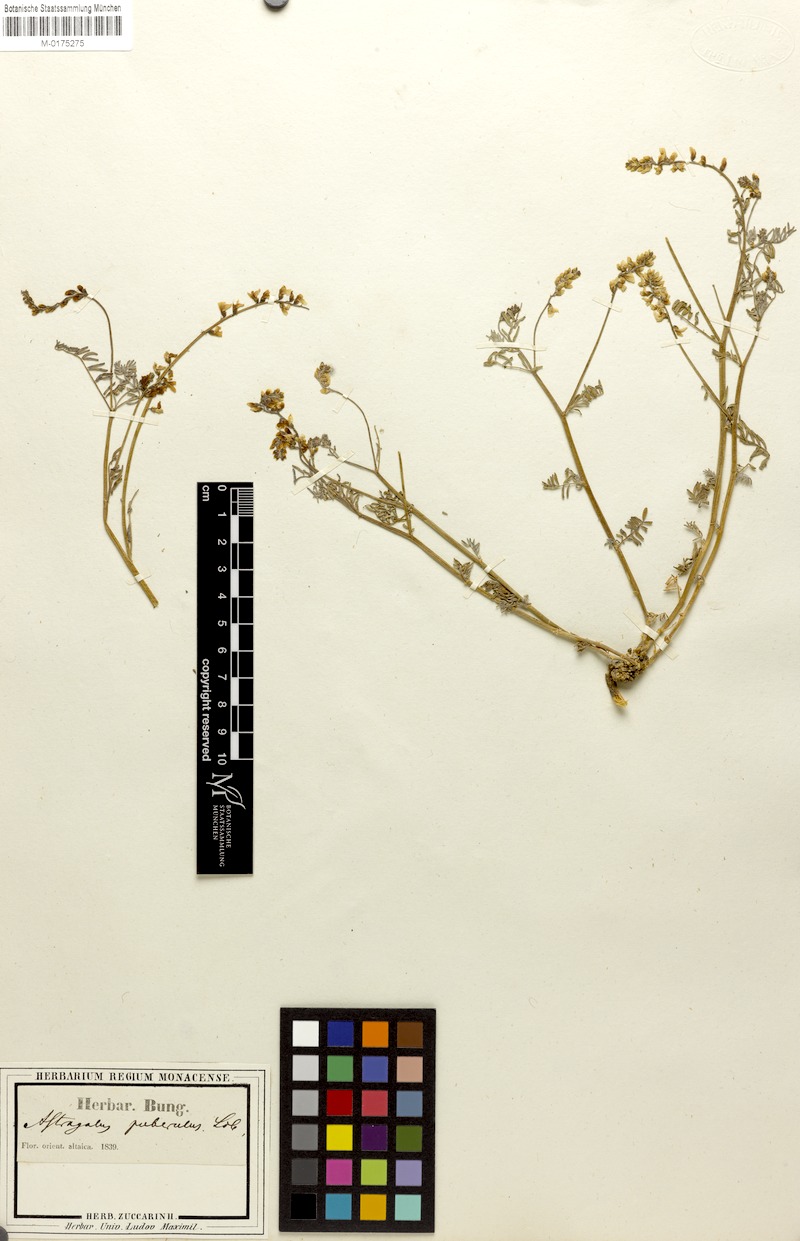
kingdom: Plantae
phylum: Tracheophyta
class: Magnoliopsida
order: Fabales
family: Fabaceae
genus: Astragalus
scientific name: Astragalus puberulus
